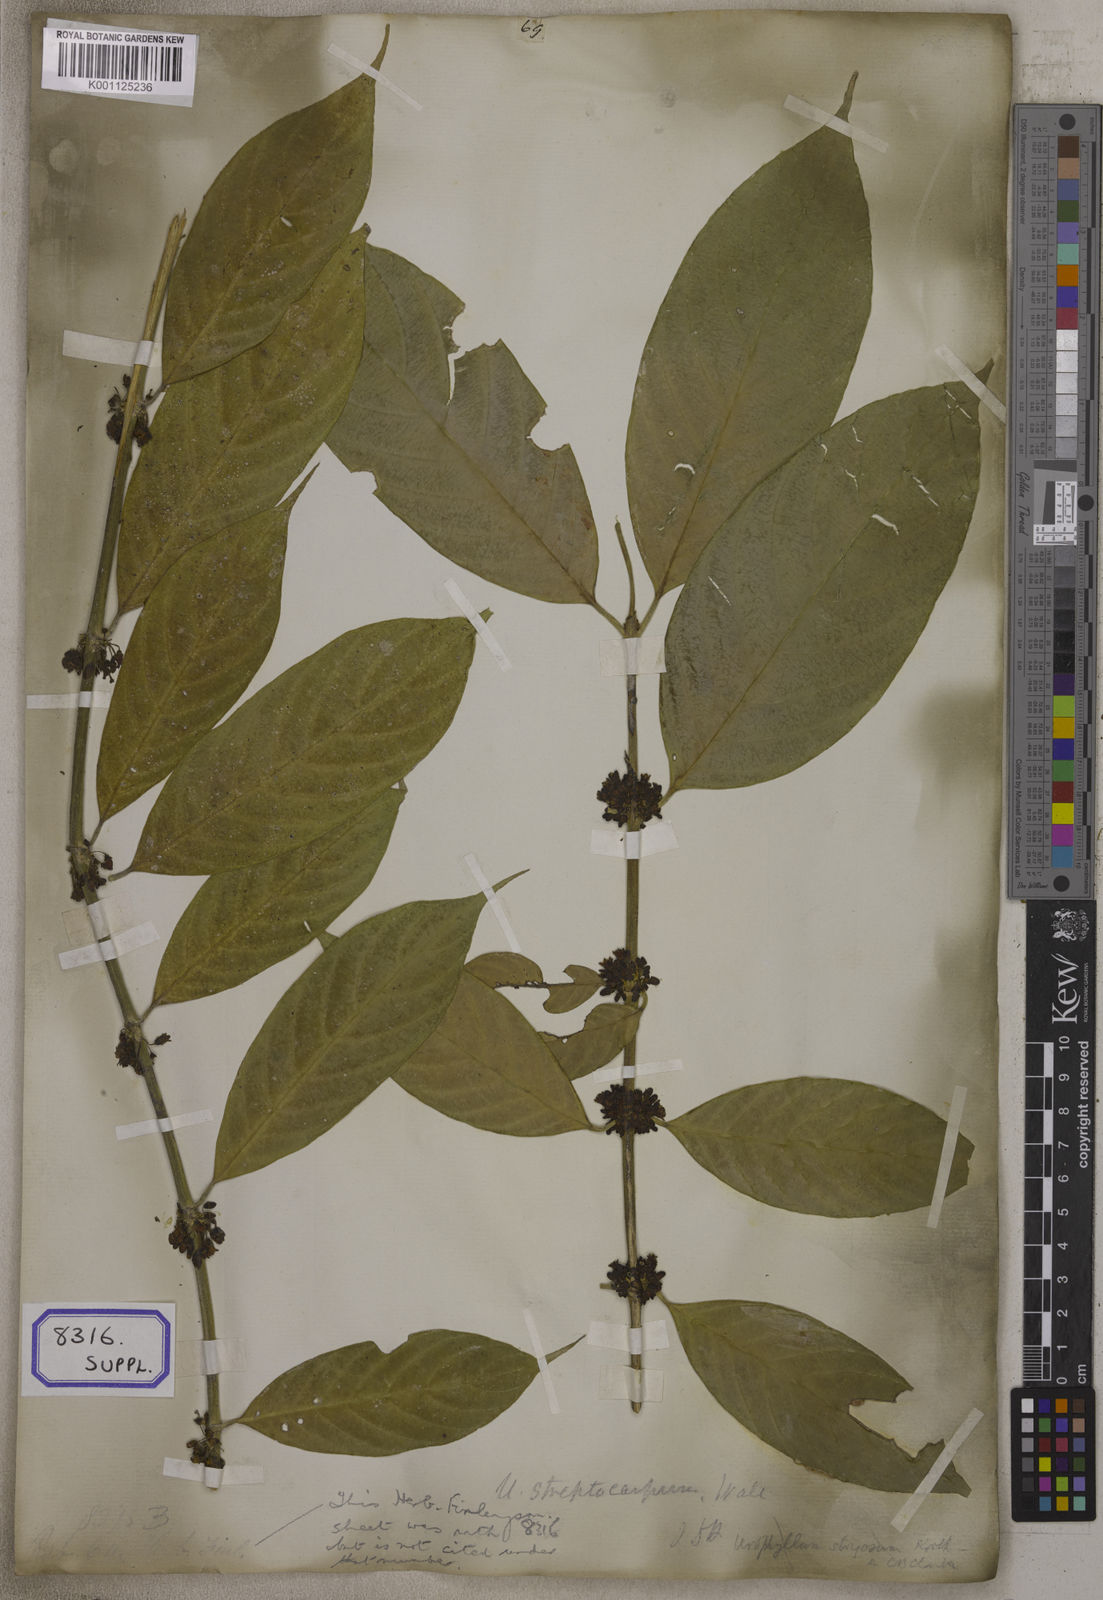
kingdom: Plantae
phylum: Tracheophyta
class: Magnoliopsida
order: Gentianales
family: Rubiaceae
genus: Urophyllum
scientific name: Urophyllum glabrum
